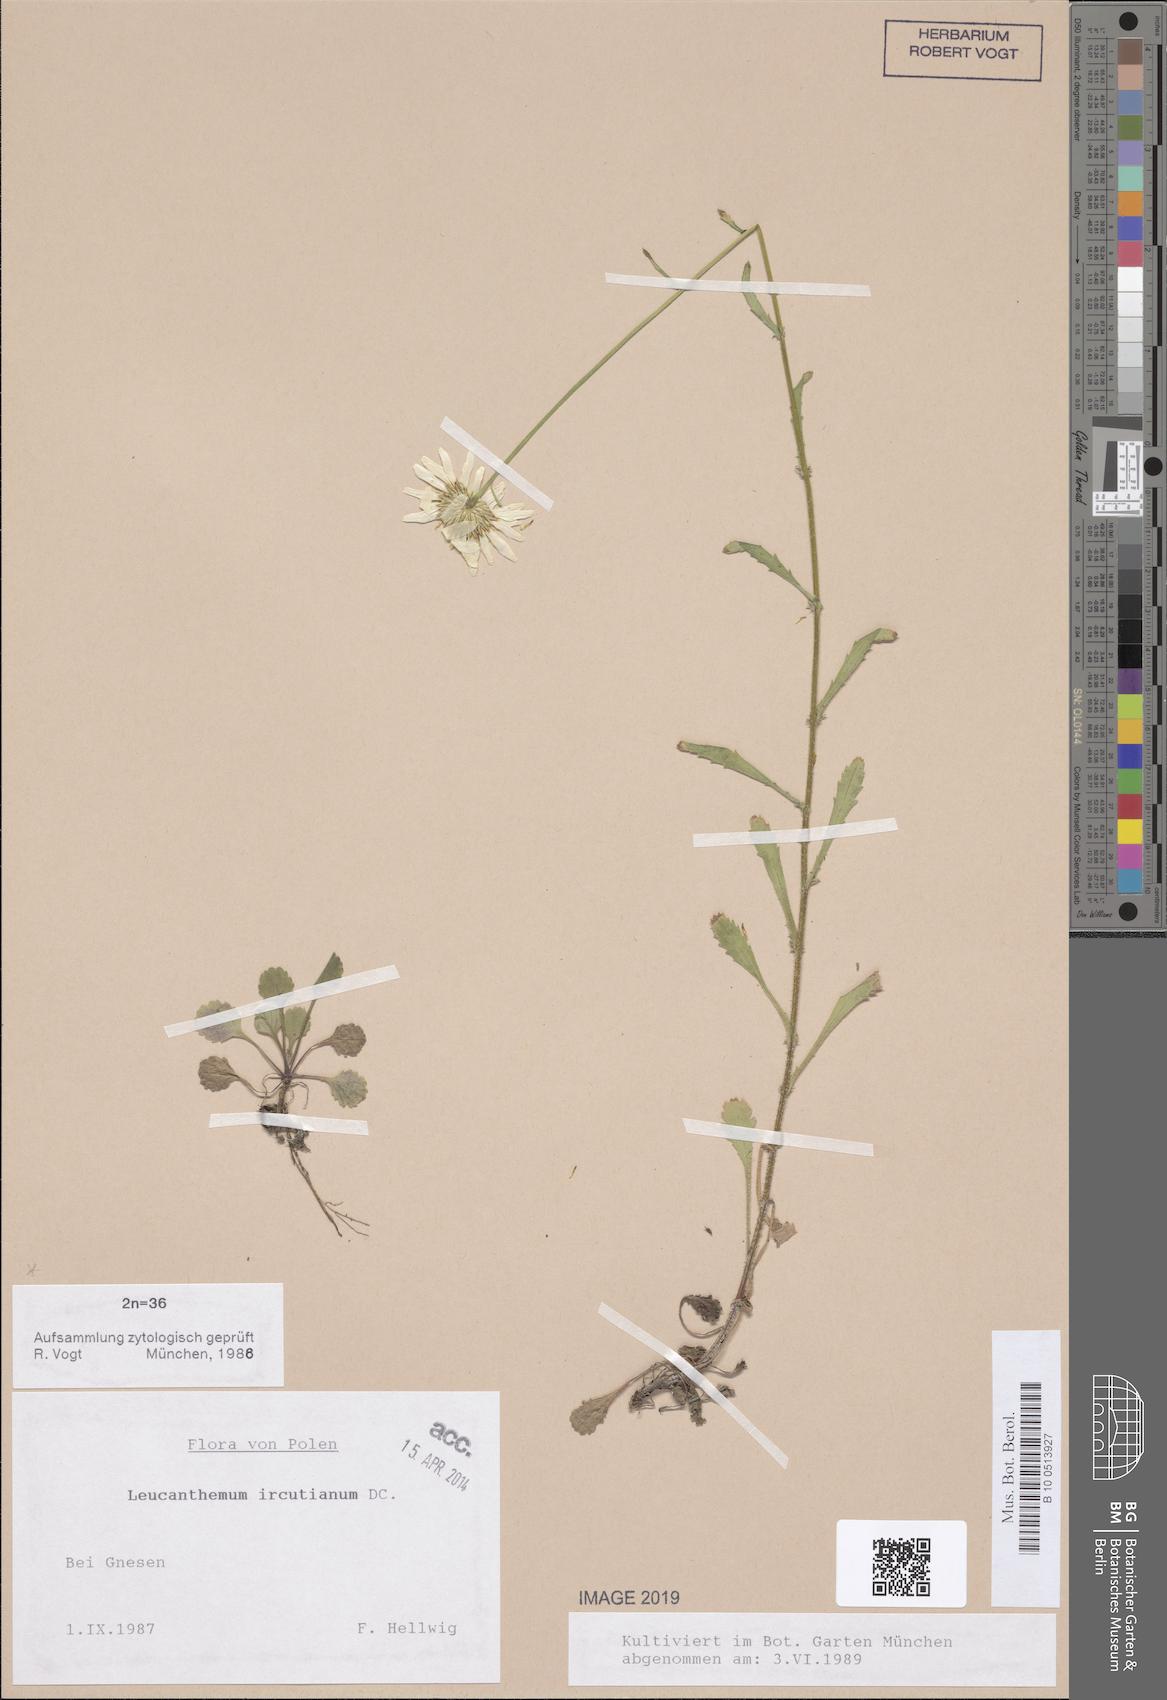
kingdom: Plantae
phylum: Tracheophyta
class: Magnoliopsida
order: Asterales
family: Asteraceae
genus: Leucanthemum
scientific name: Leucanthemum ircutianum
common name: Daisy
